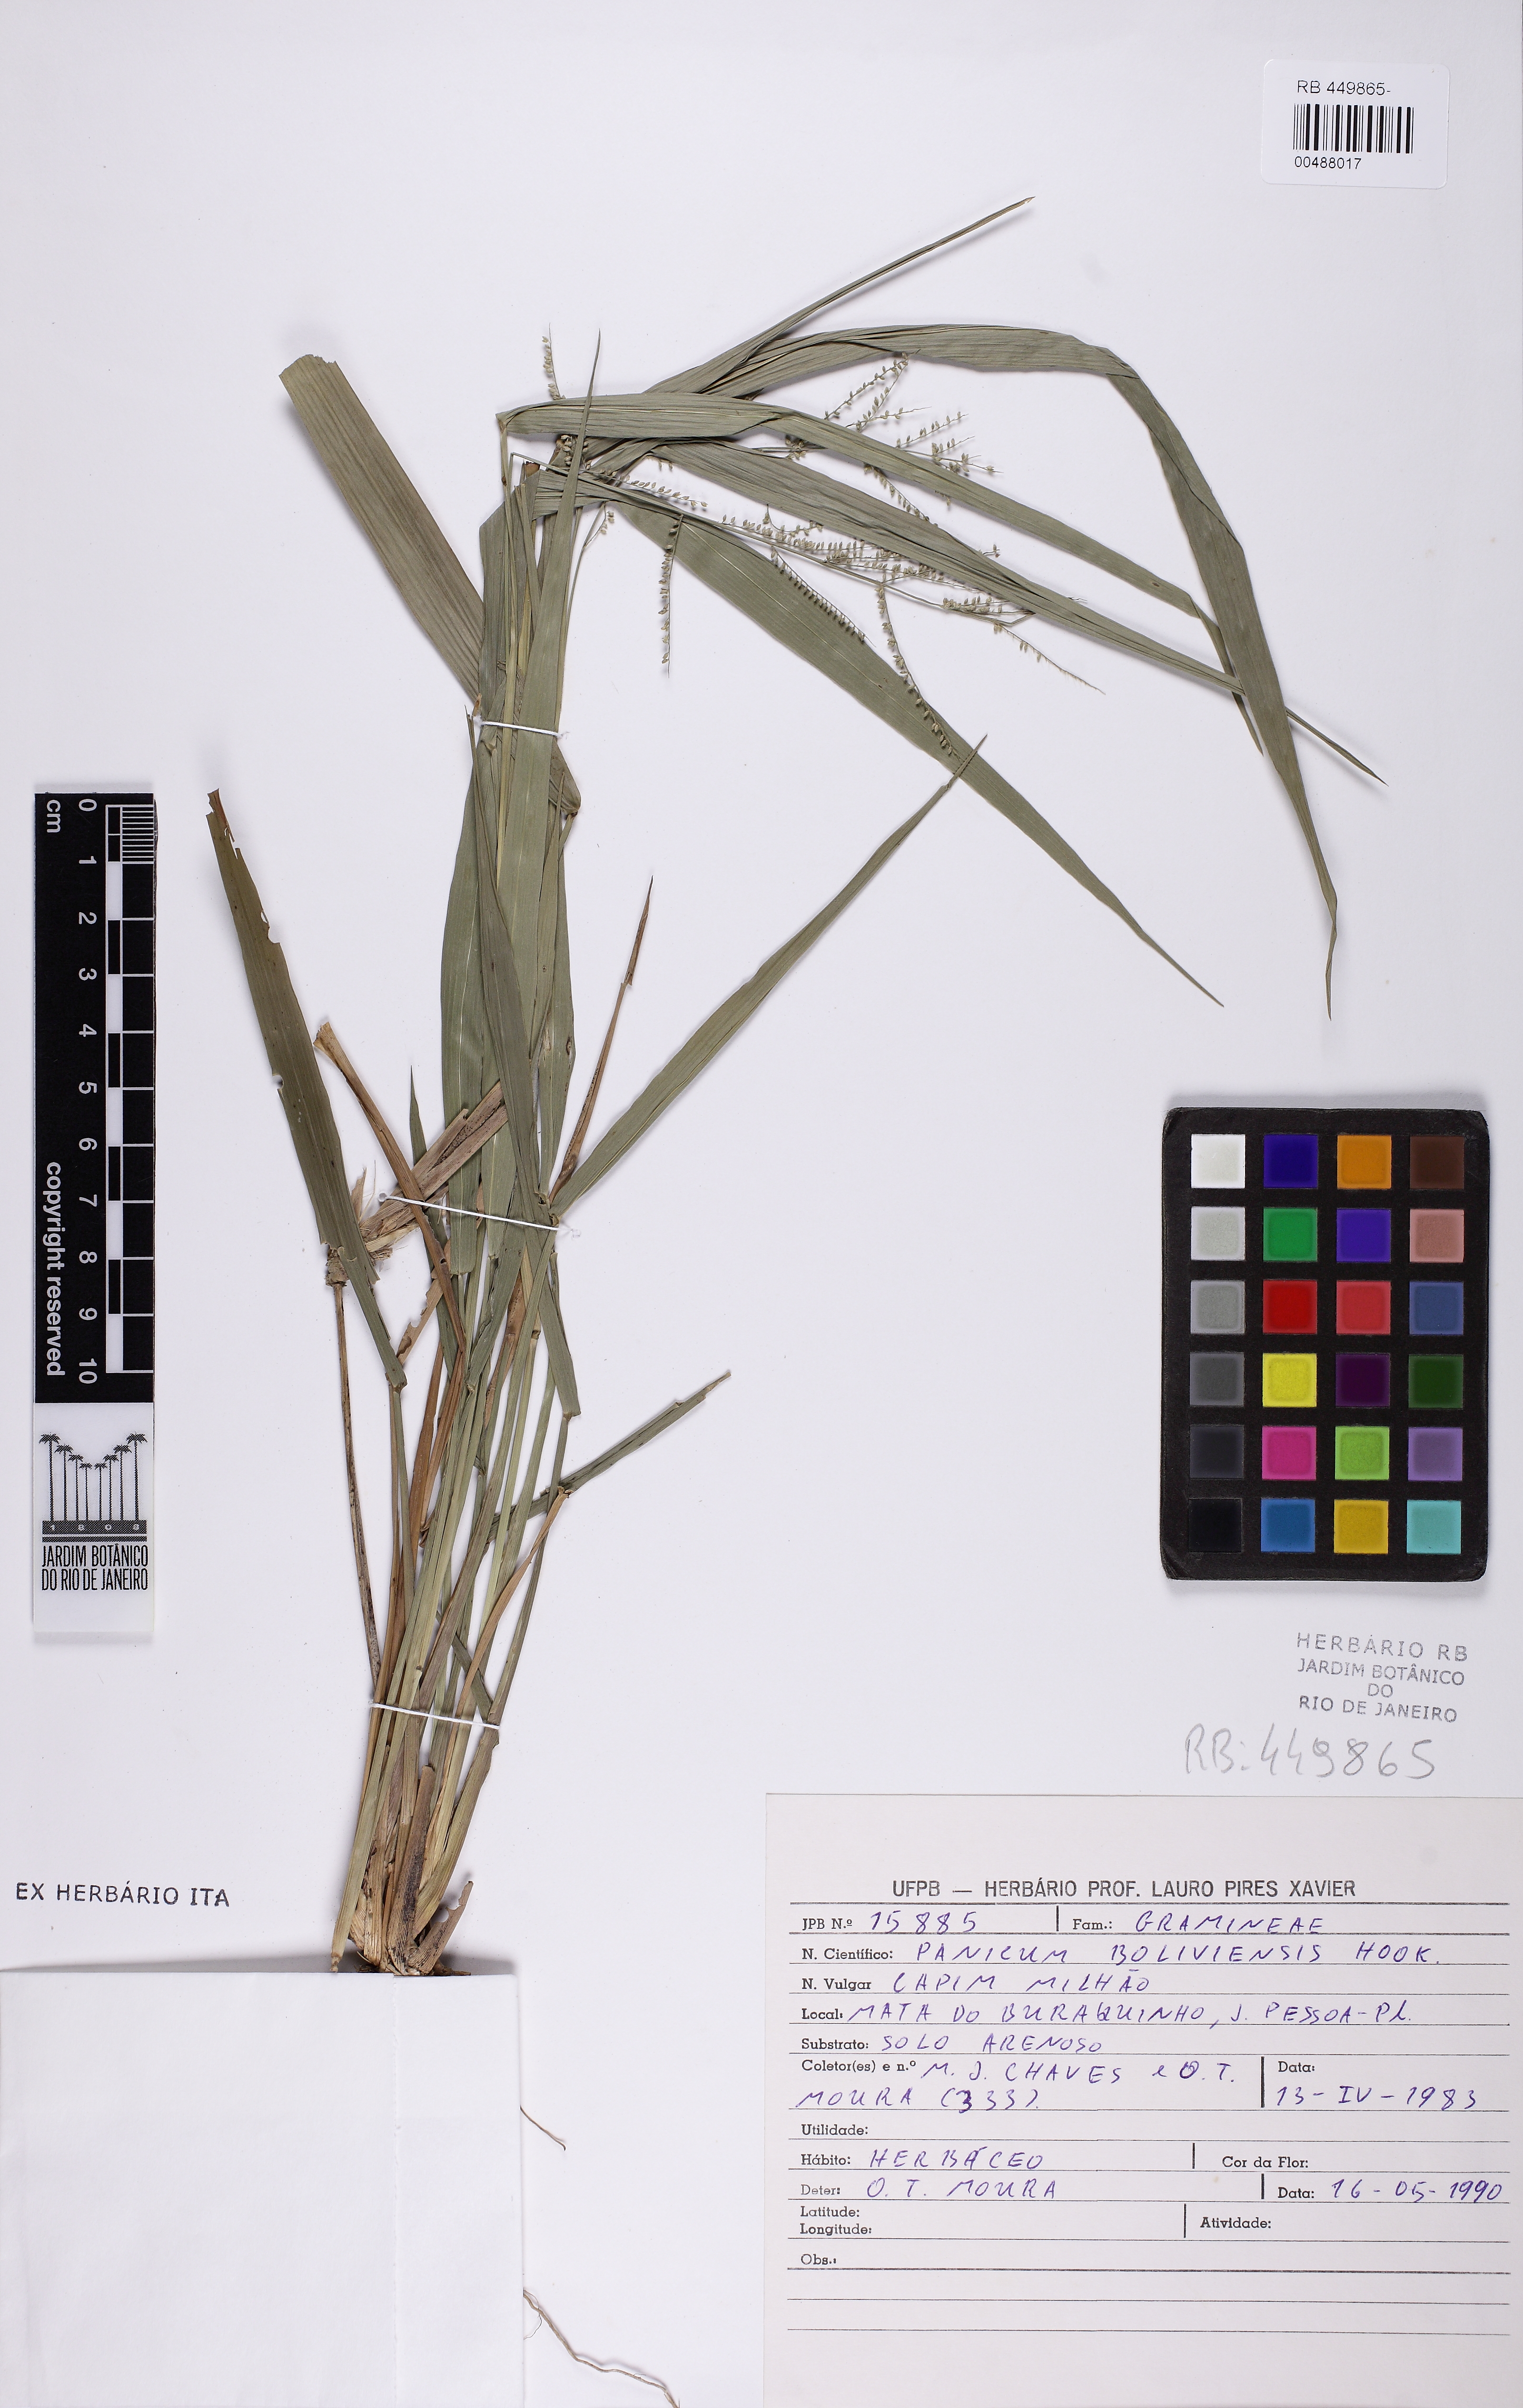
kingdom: Plantae
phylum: Tracheophyta
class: Liliopsida
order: Poales
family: Poaceae
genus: Rugoloa
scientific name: Rugoloa polygonata
